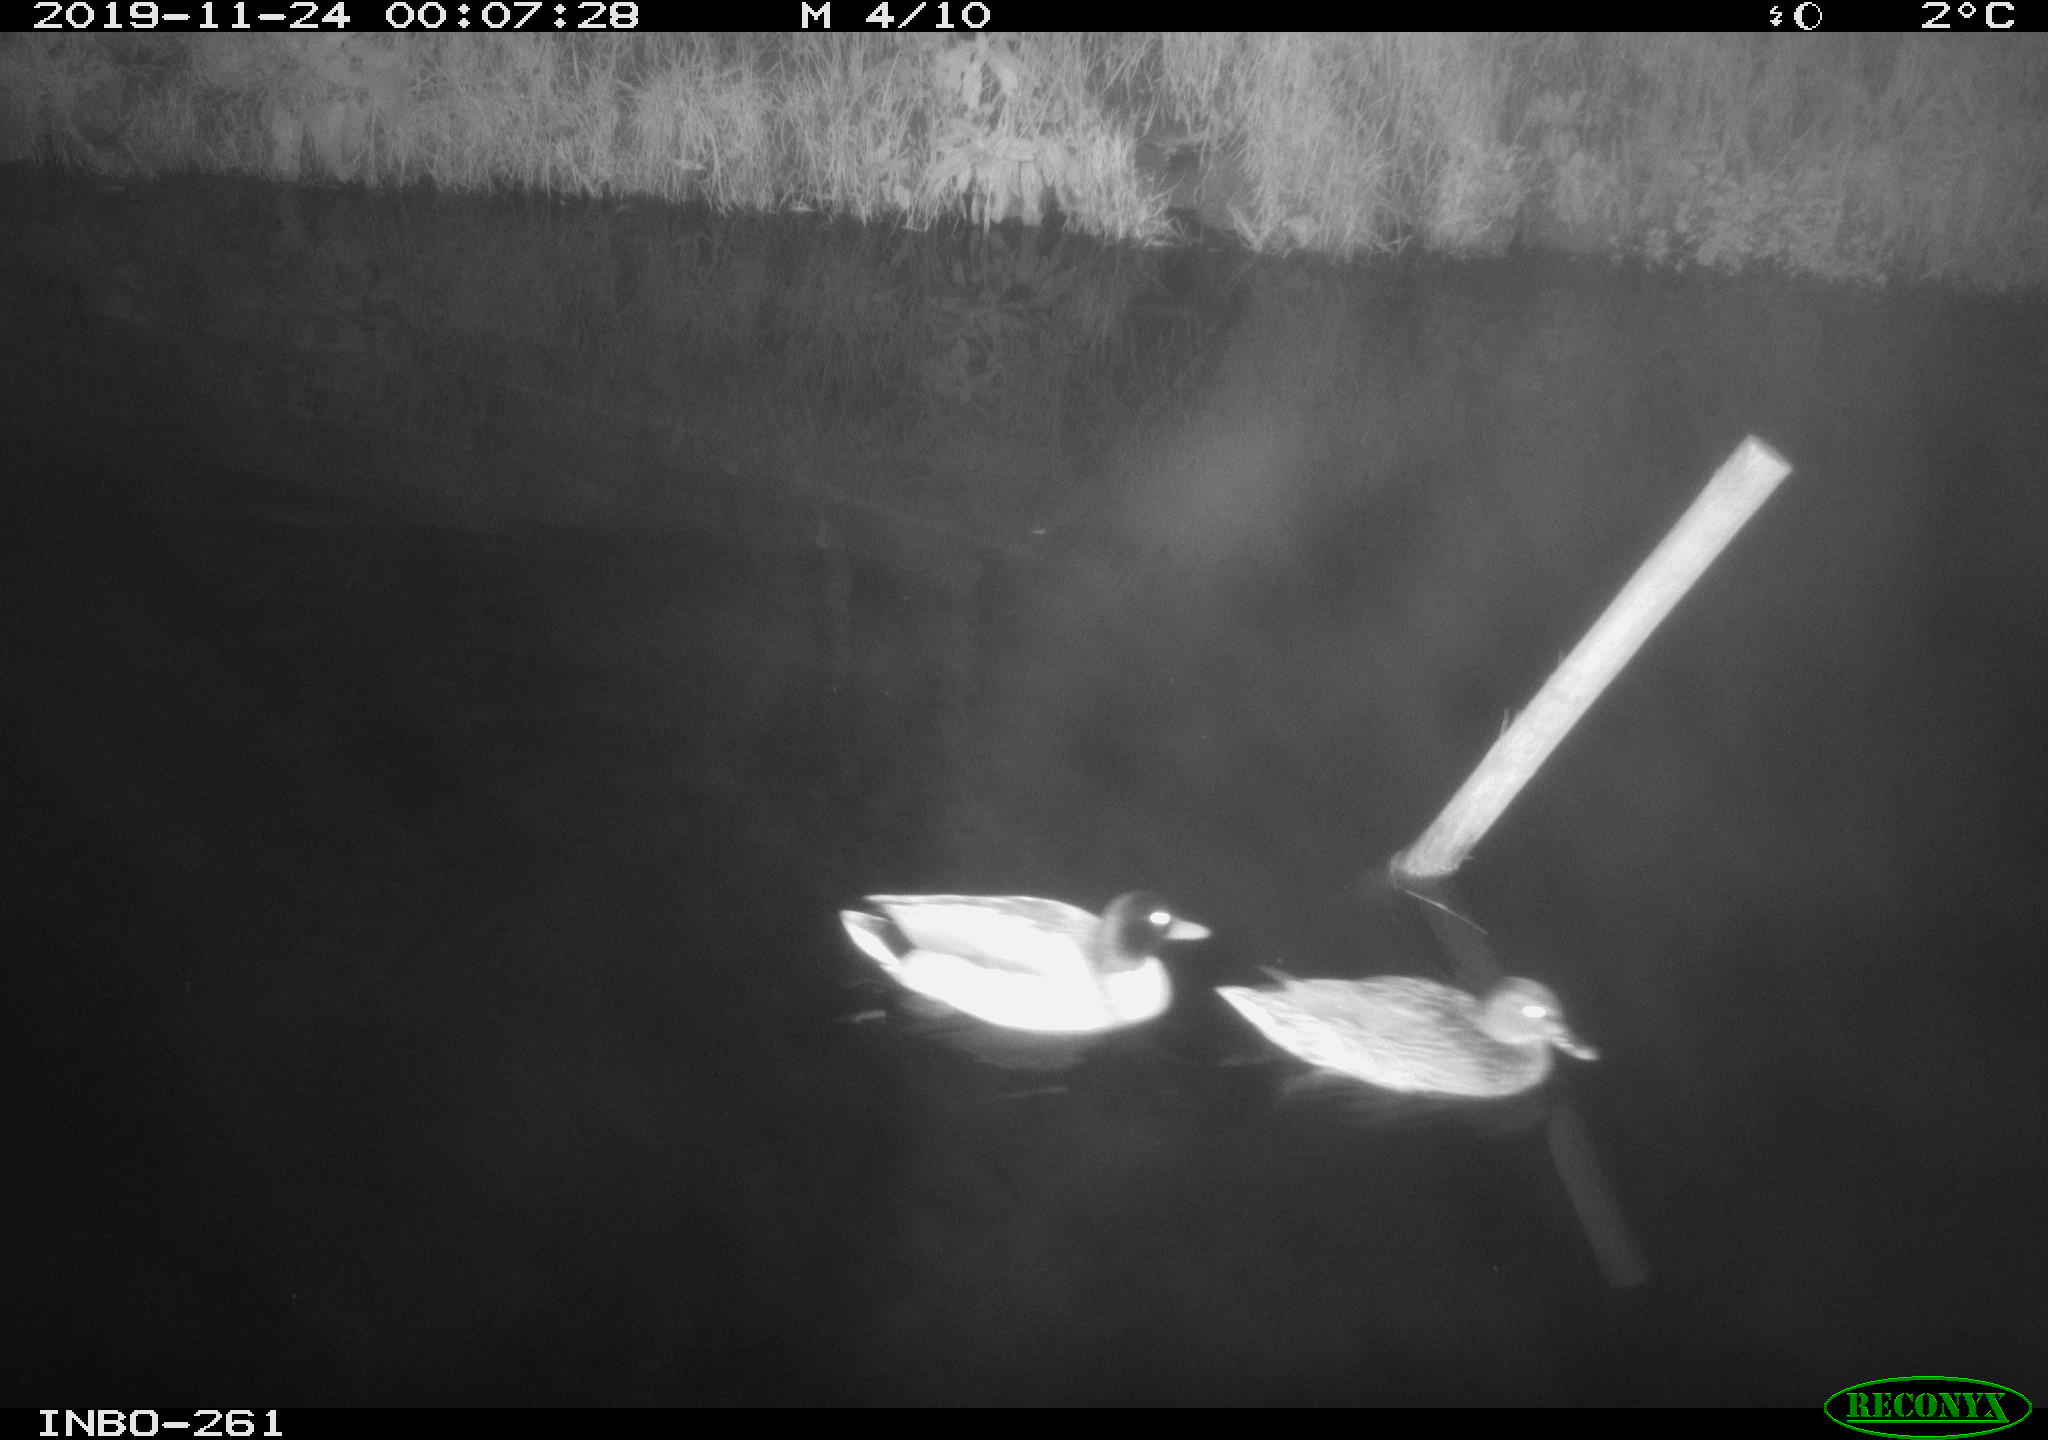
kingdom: Animalia
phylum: Chordata
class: Aves
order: Anseriformes
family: Anatidae
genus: Anas
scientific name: Anas platyrhynchos
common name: Mallard
